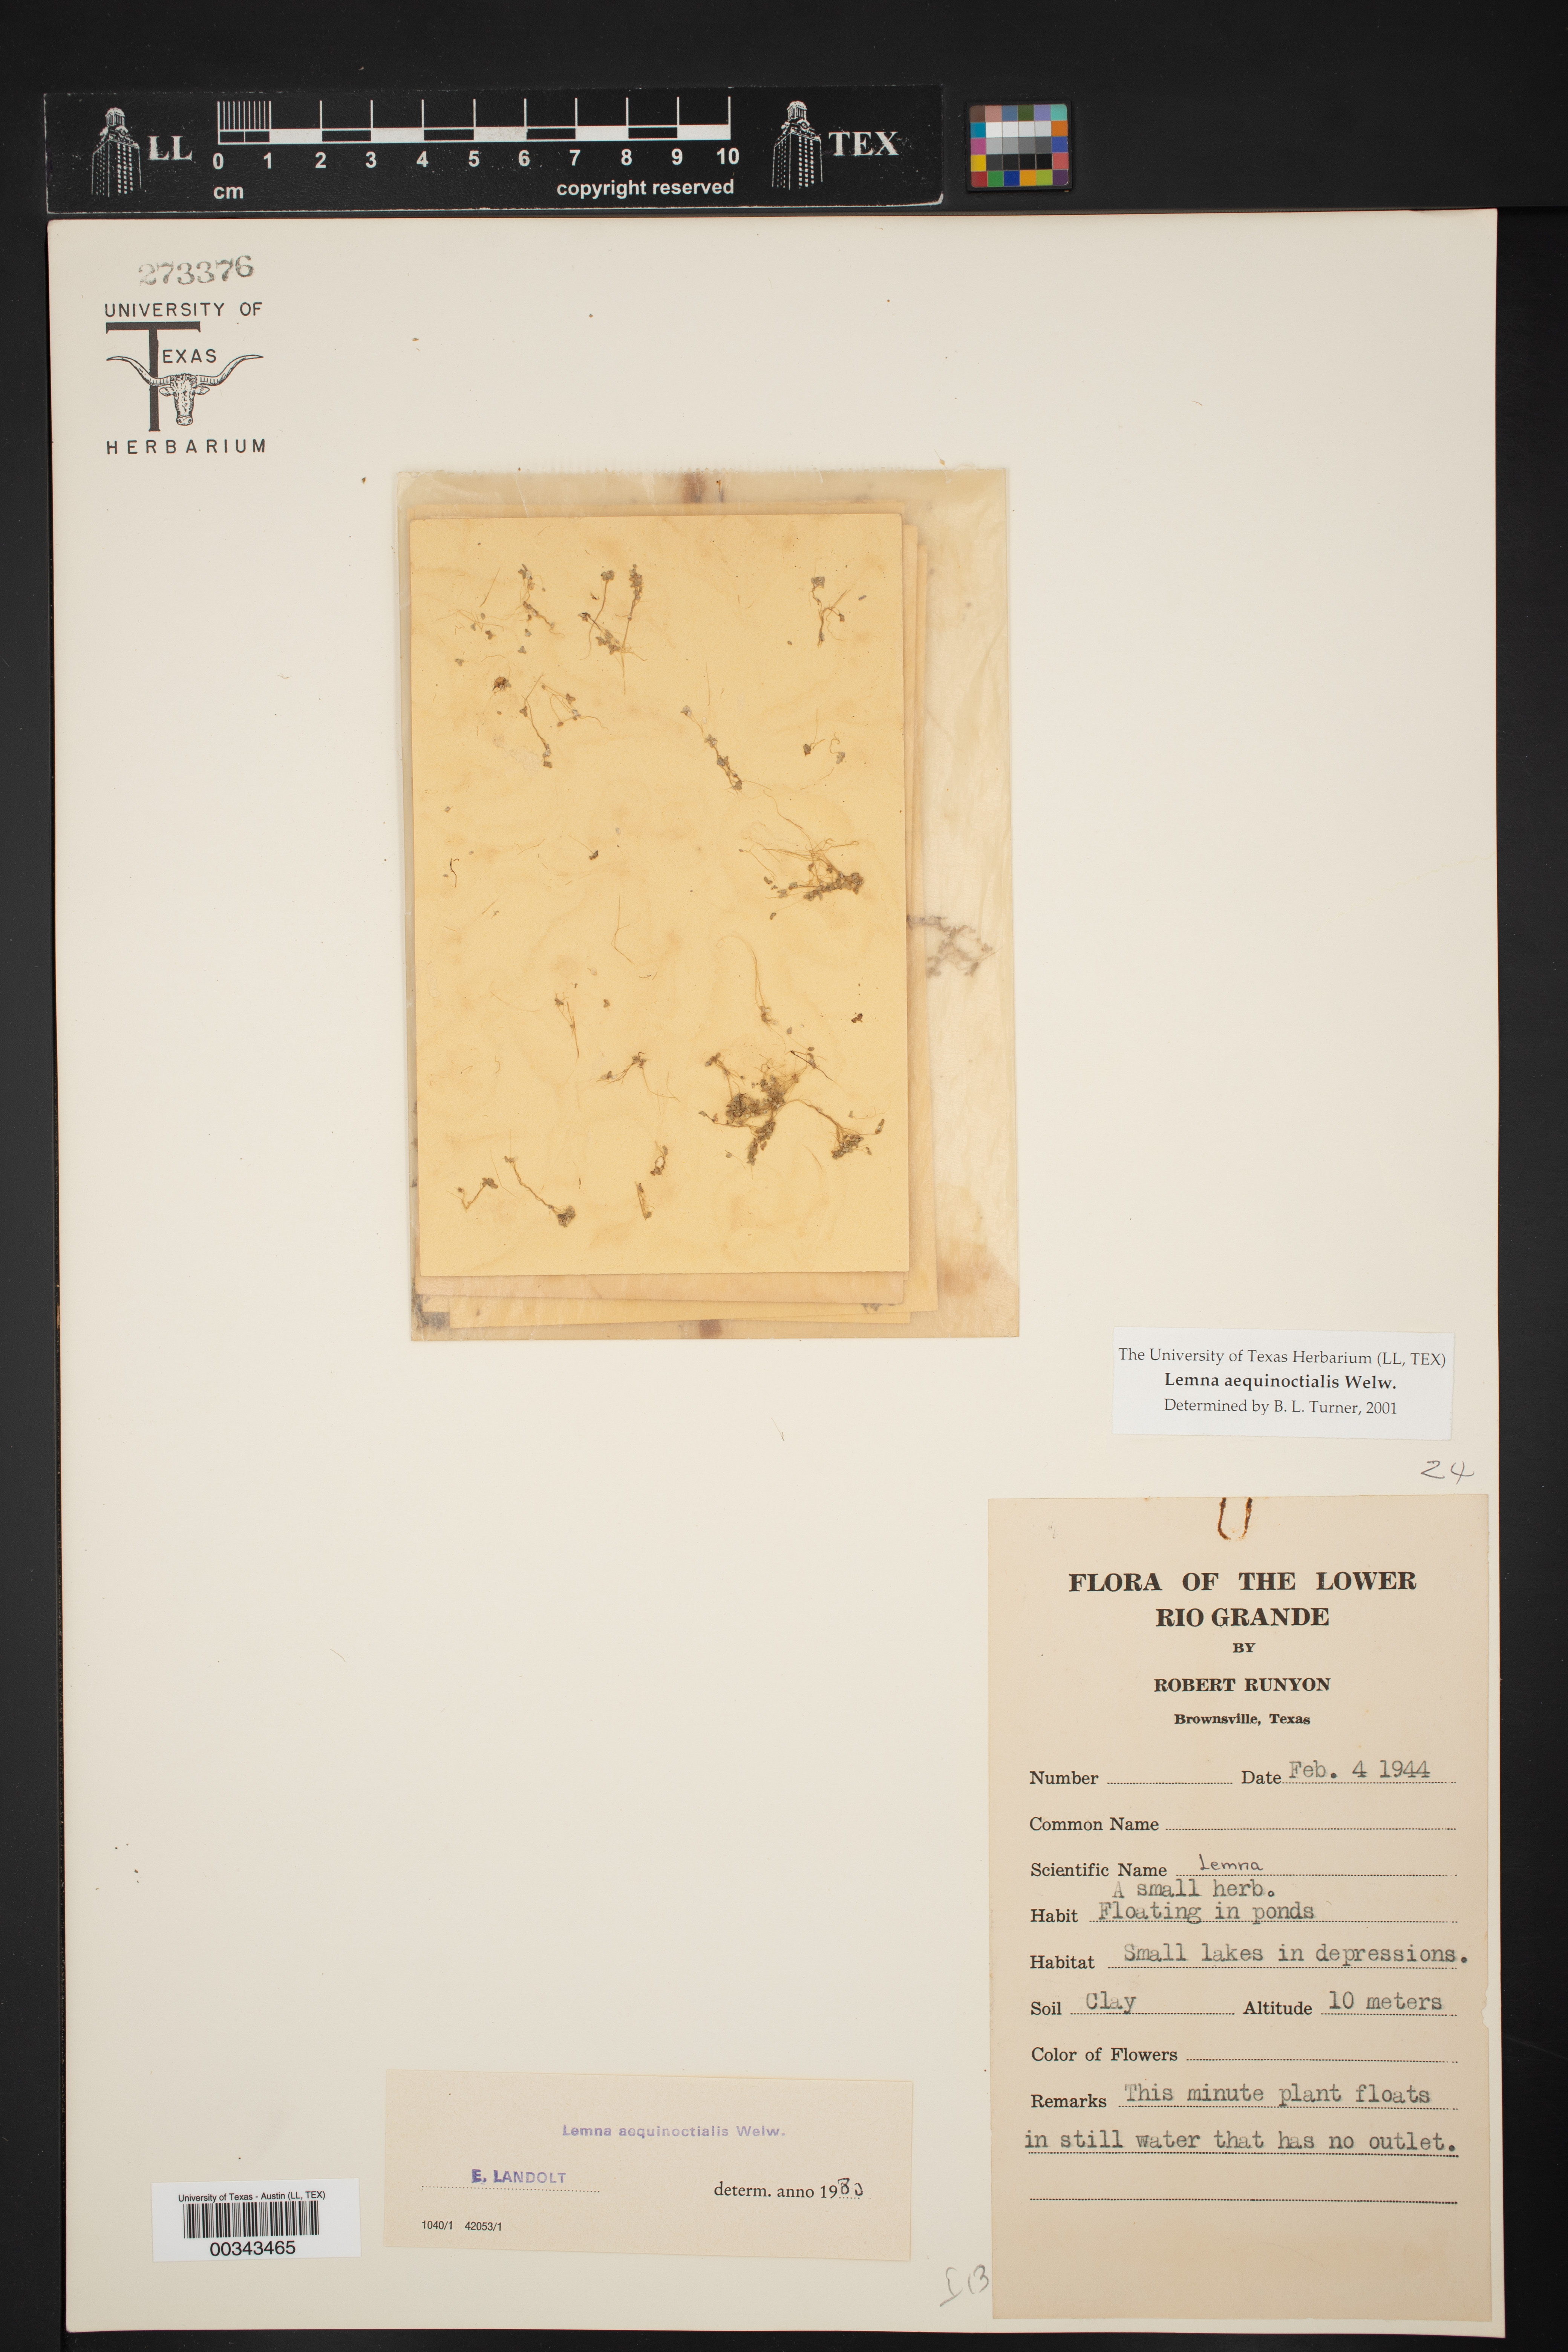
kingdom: Plantae
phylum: Tracheophyta
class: Liliopsida
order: Alismatales
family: Araceae
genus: Lemna
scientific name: Lemna aequinoctialis
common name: Duckweed
